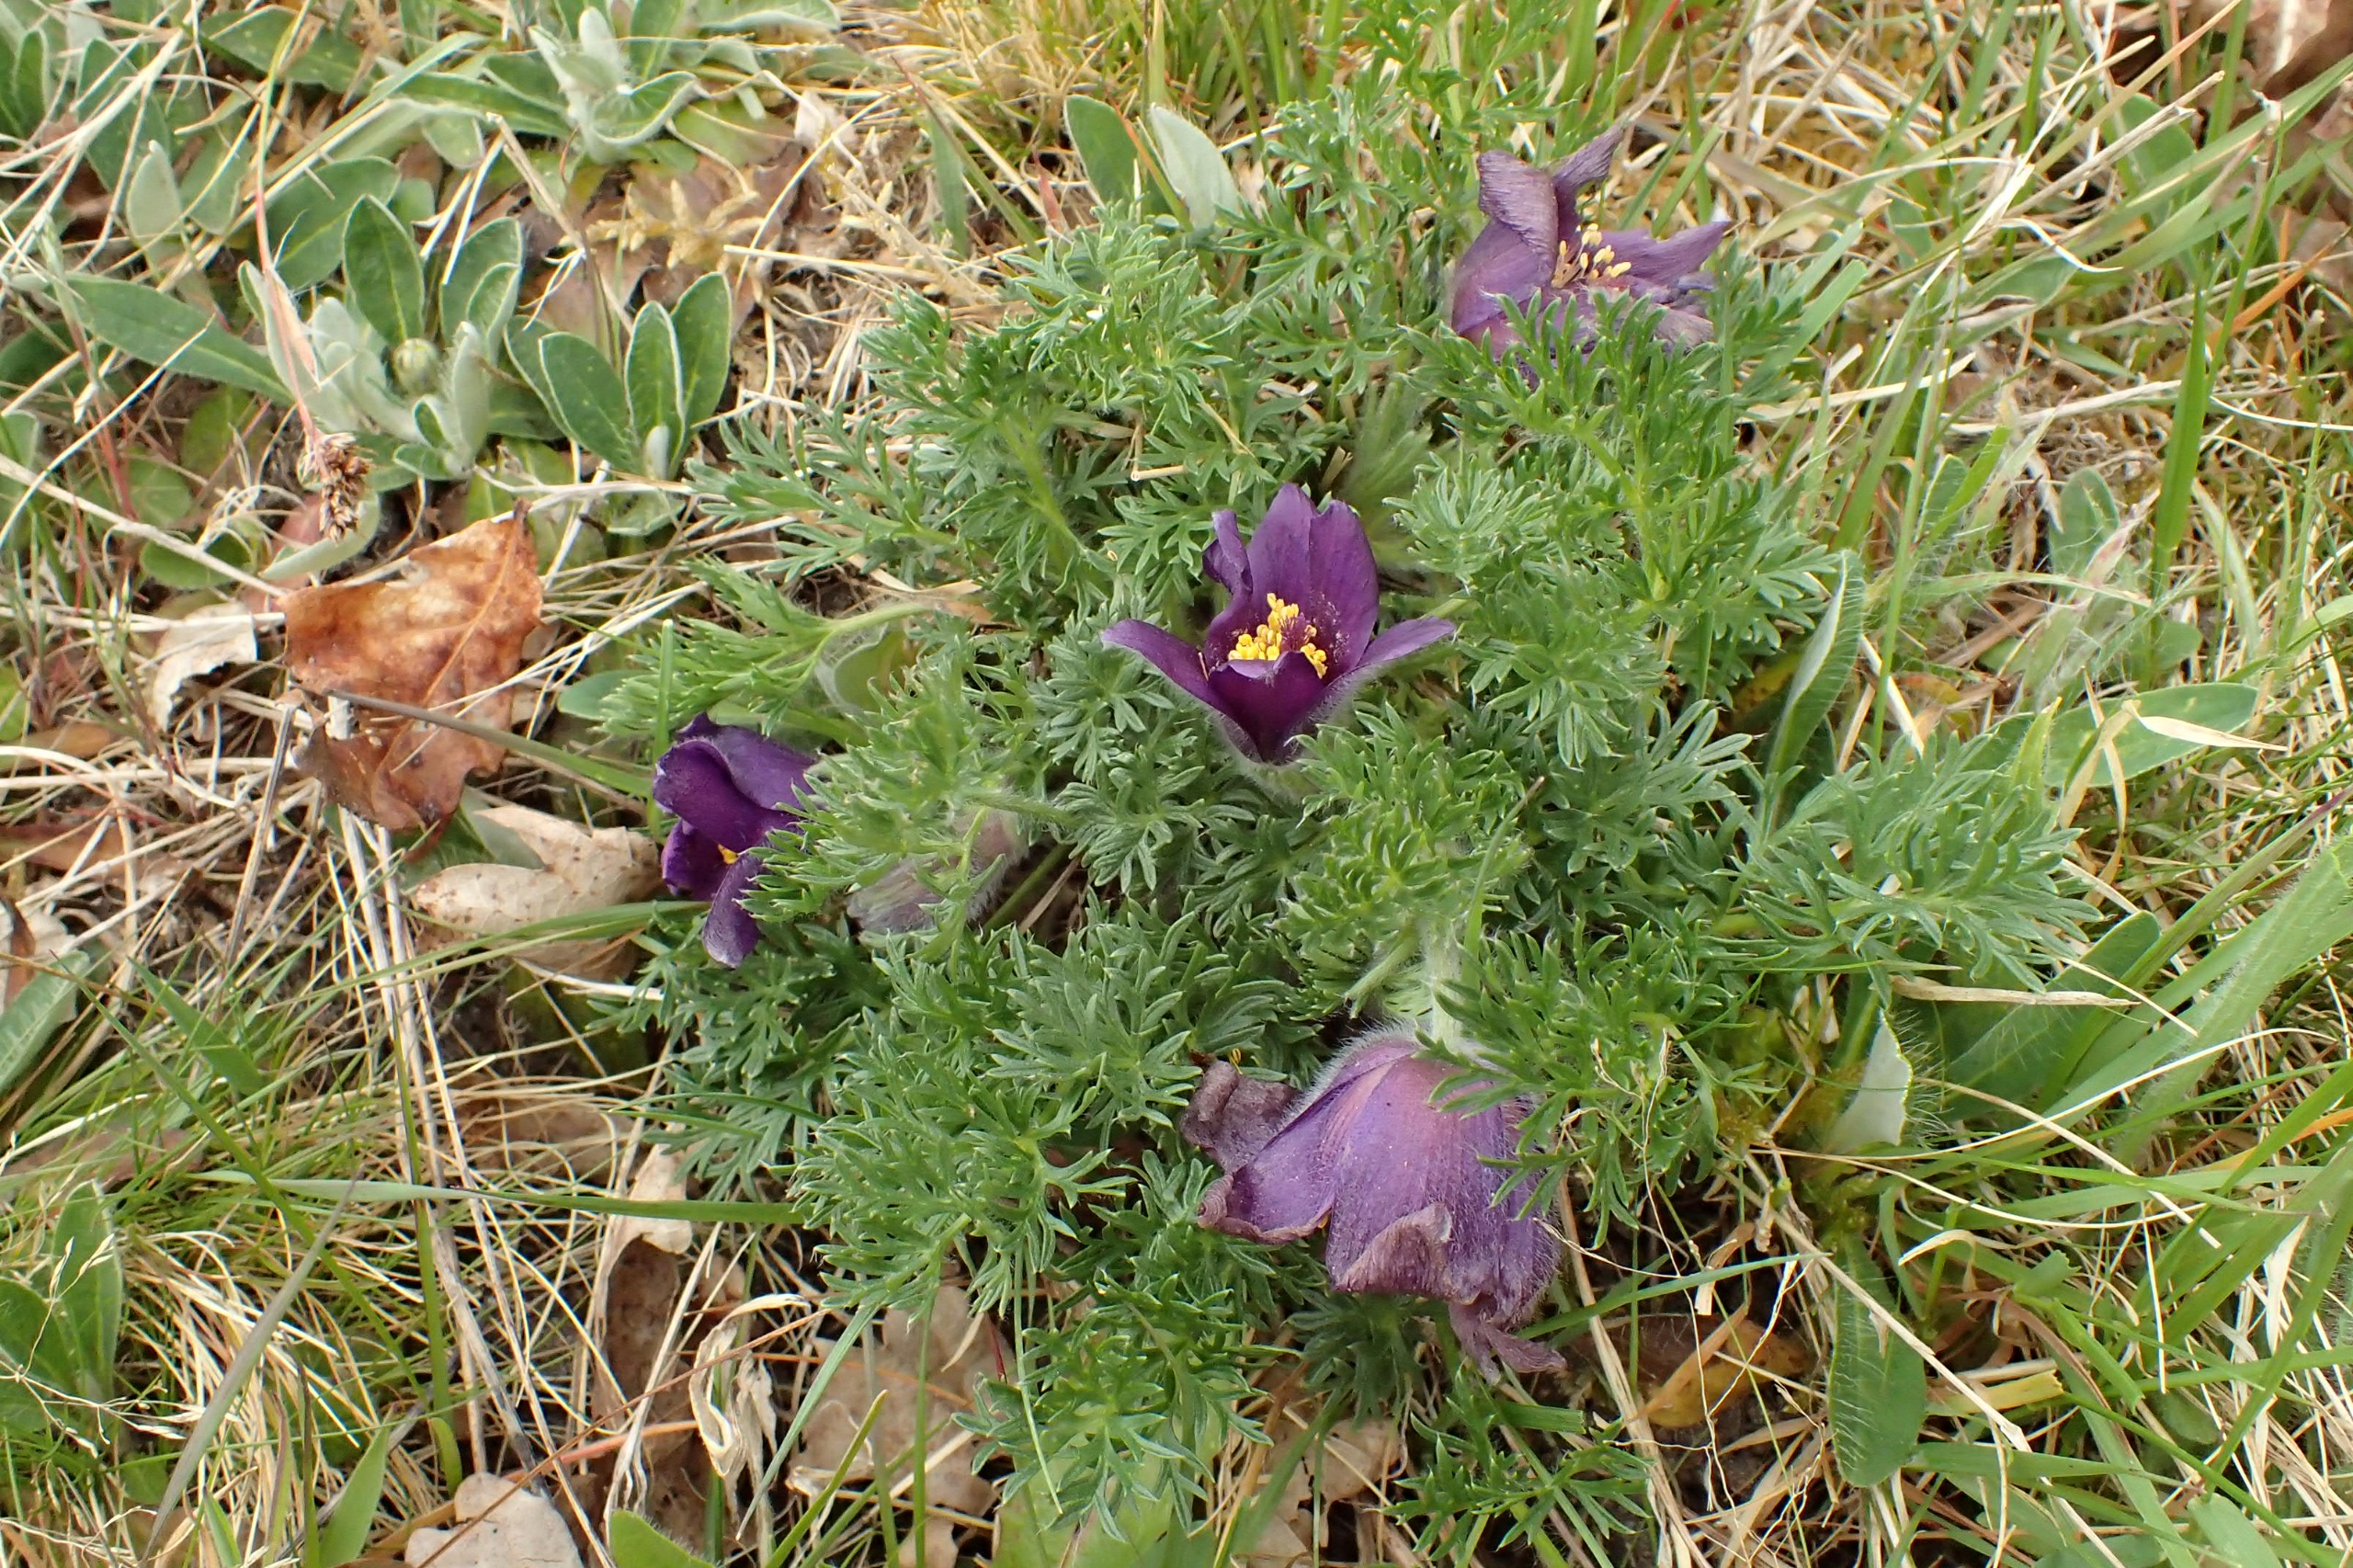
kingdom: Plantae
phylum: Tracheophyta
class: Magnoliopsida
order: Ranunculales
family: Ranunculaceae
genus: Pulsatilla
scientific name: Pulsatilla vulgaris
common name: Opret kobjælde
